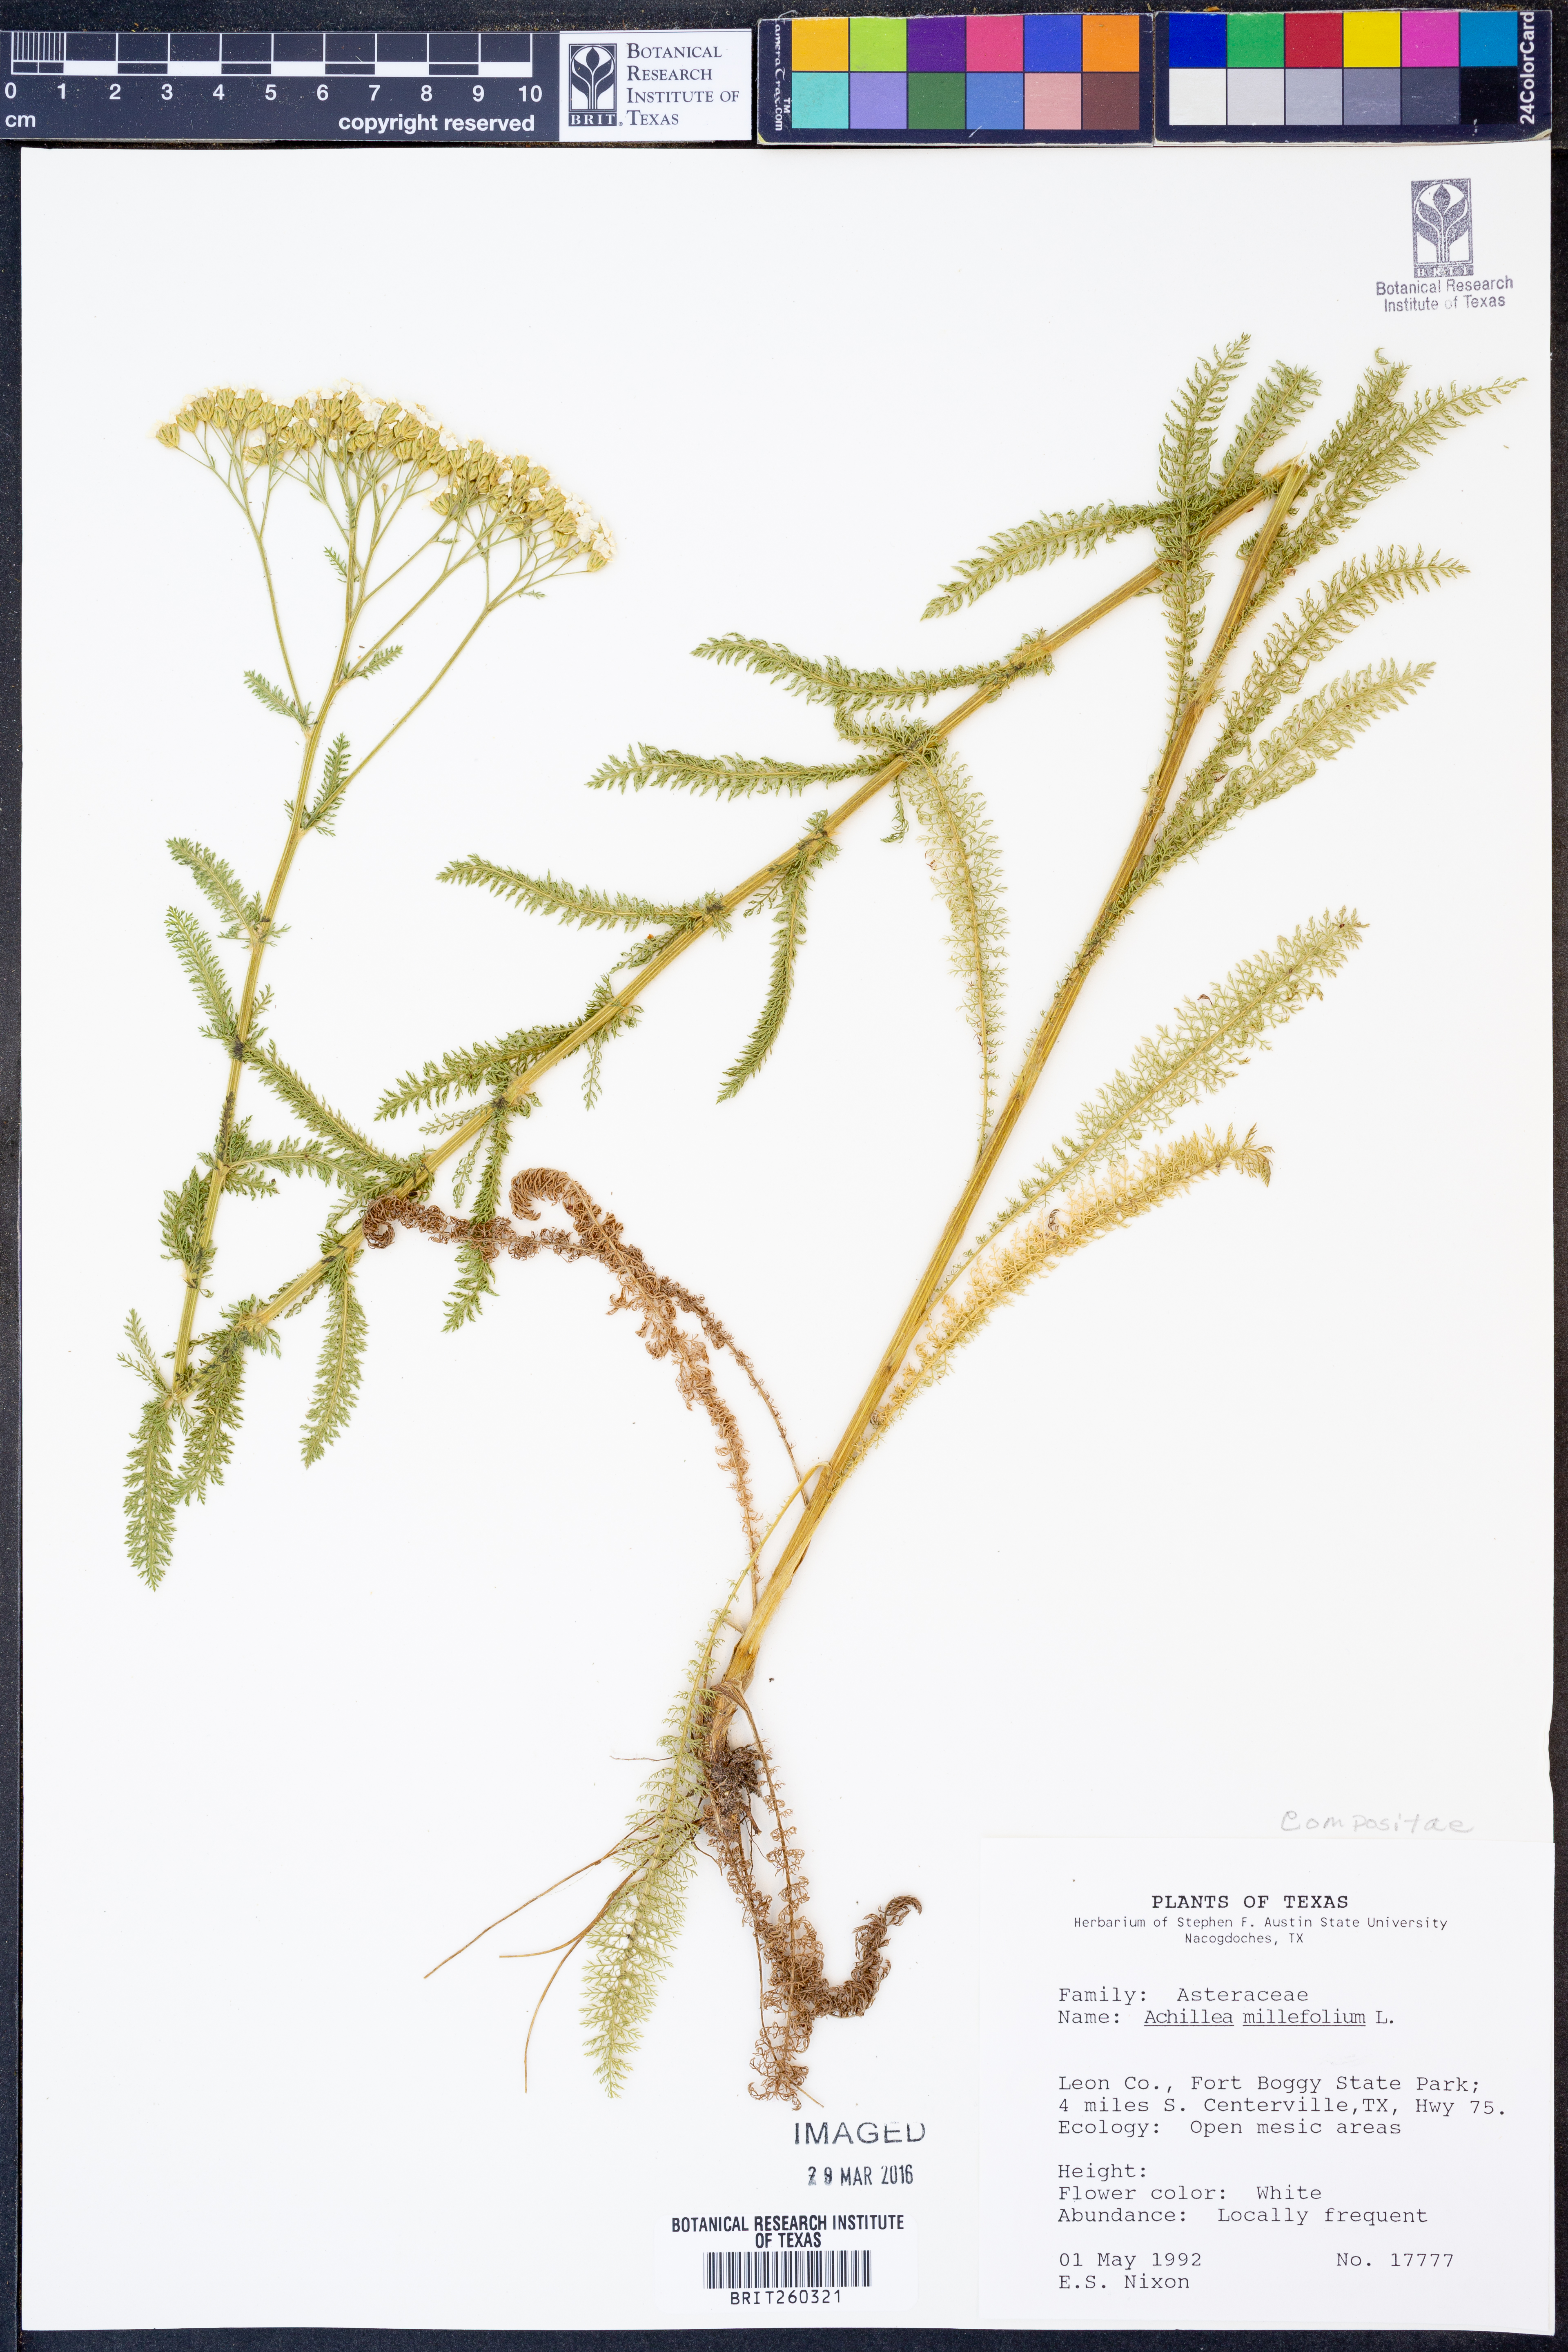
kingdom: Plantae
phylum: Tracheophyta
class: Magnoliopsida
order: Asterales
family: Asteraceae
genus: Achillea
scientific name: Achillea millefolium
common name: Yarrow
